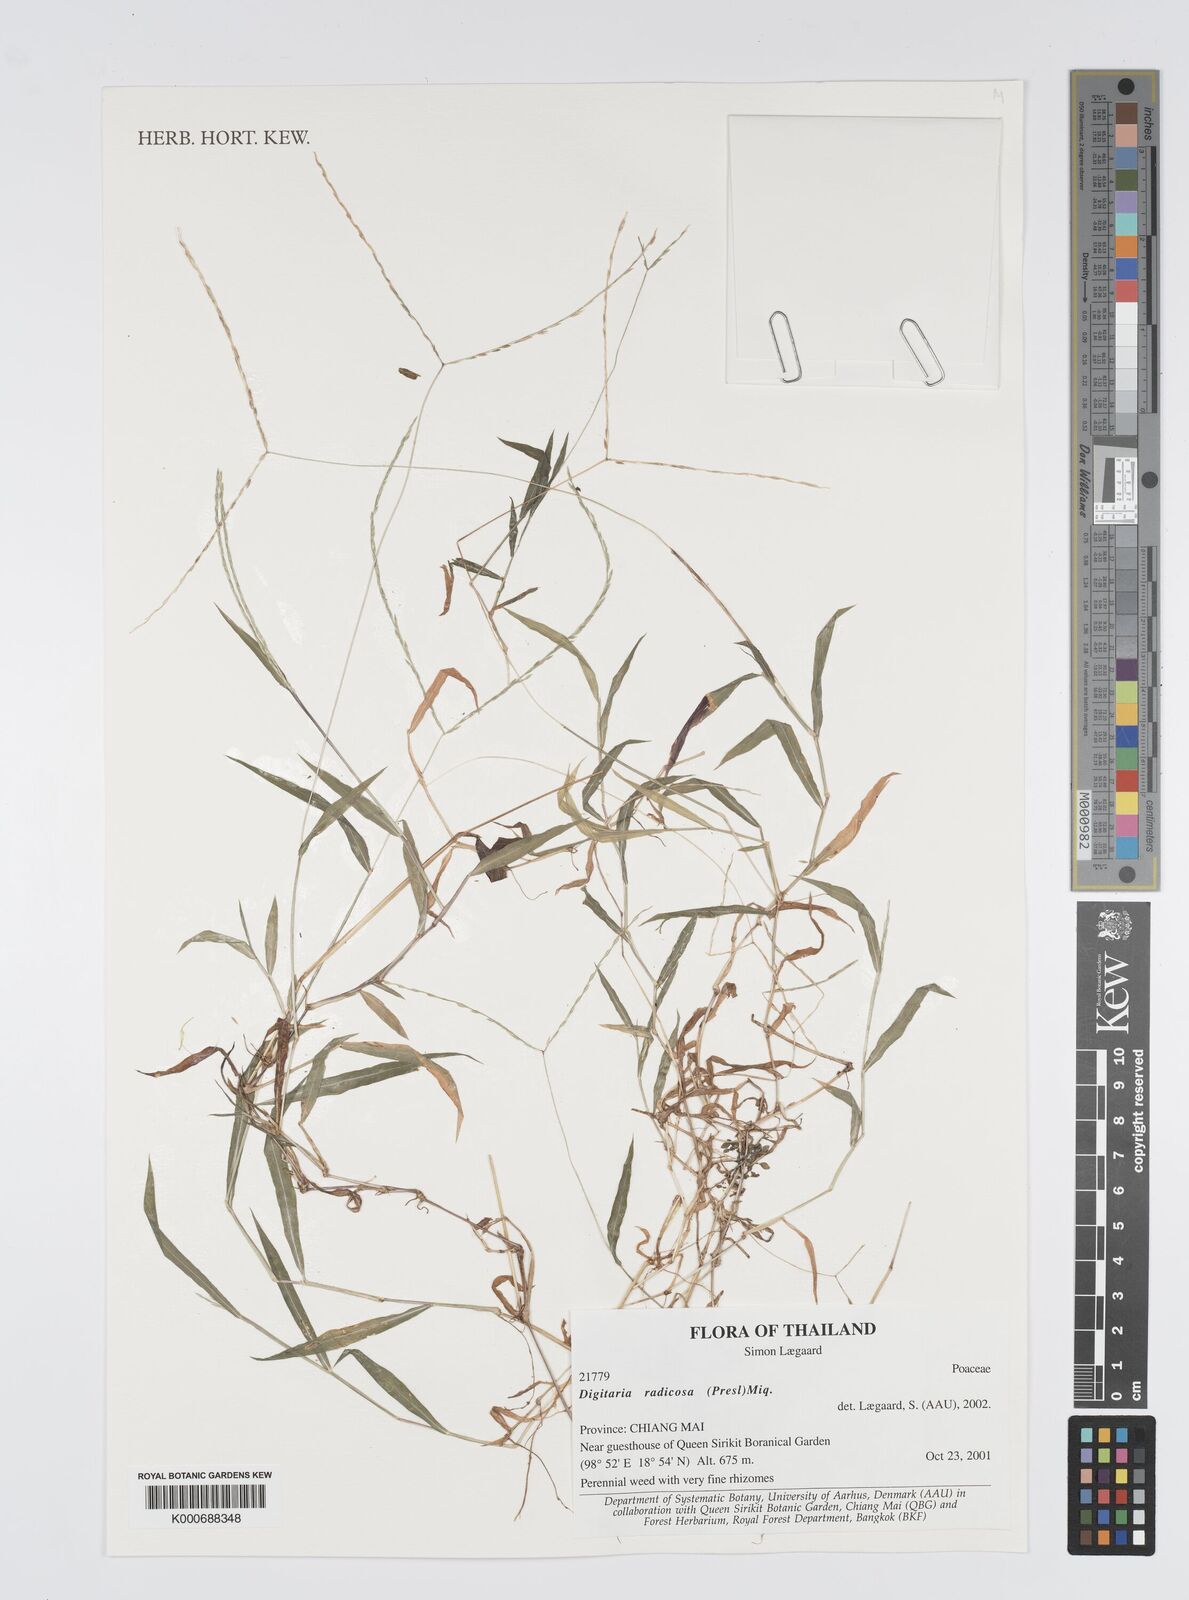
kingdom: Plantae
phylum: Tracheophyta
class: Liliopsida
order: Poales
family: Poaceae
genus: Digitaria
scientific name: Digitaria radicosa
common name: Trailing crabgrass
